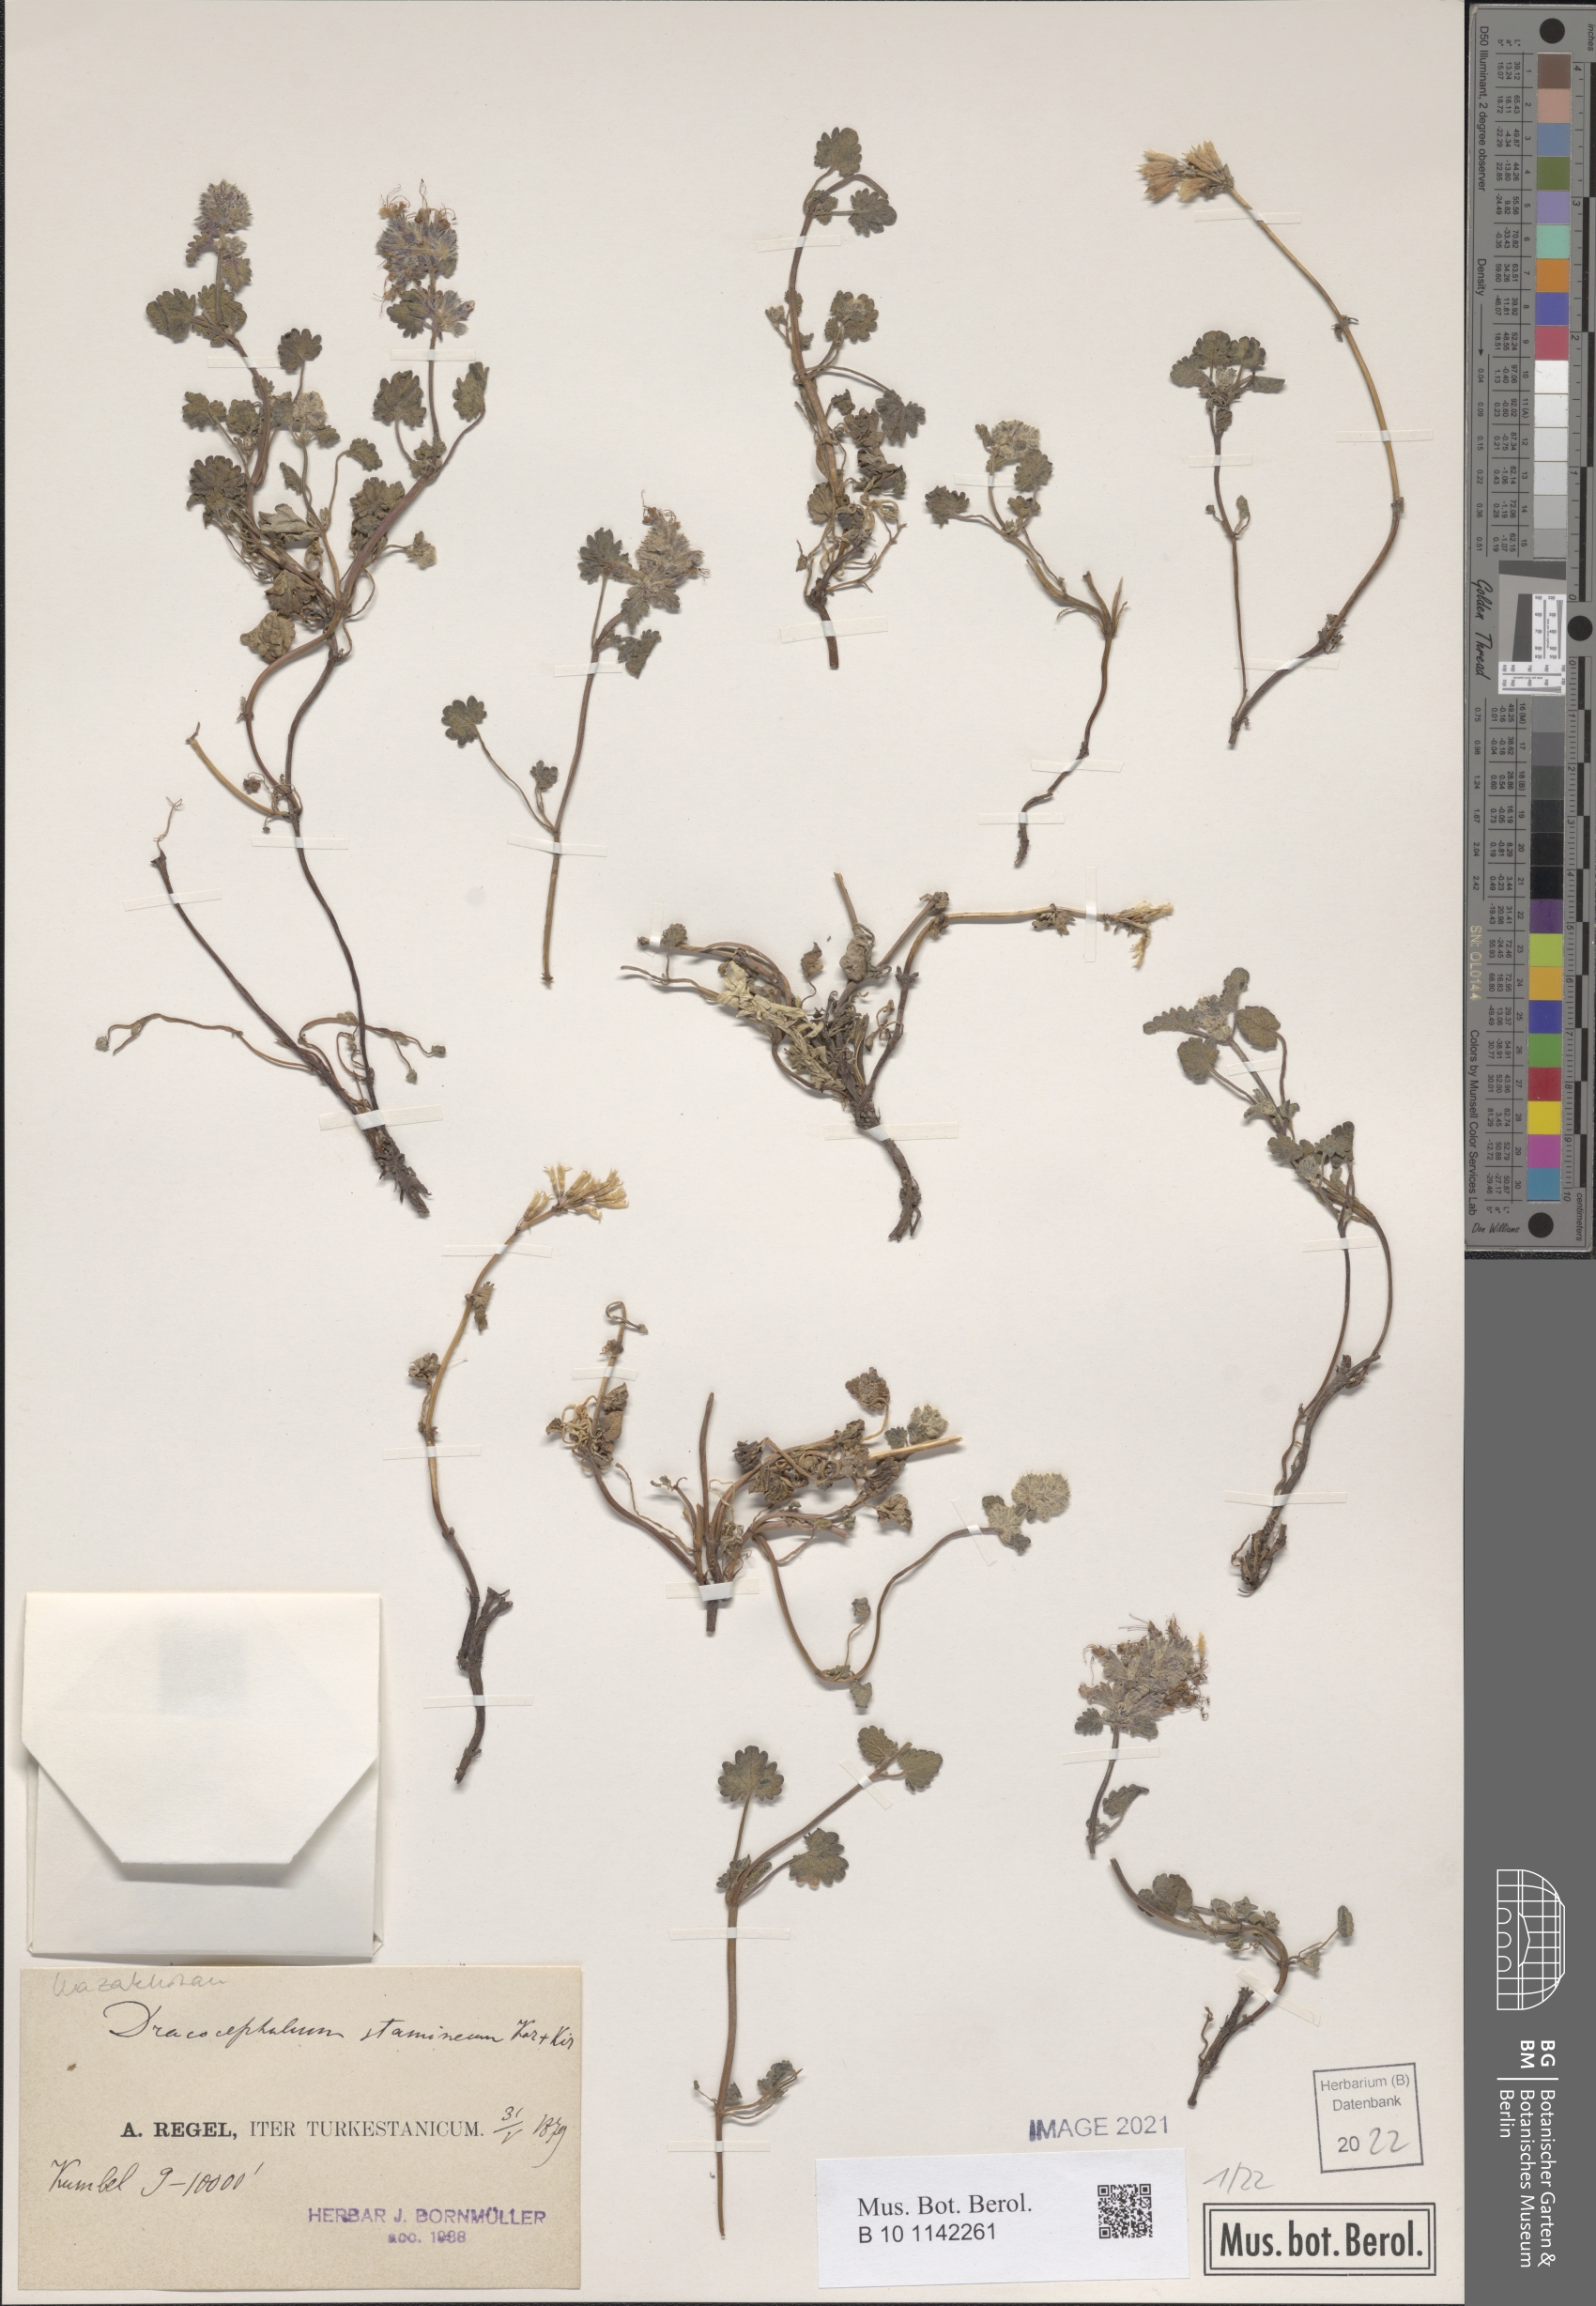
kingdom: Plantae
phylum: Tracheophyta
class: Magnoliopsida
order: Lamiales
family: Lamiaceae
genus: Dracocephalum
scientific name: Dracocephalum stamineum
